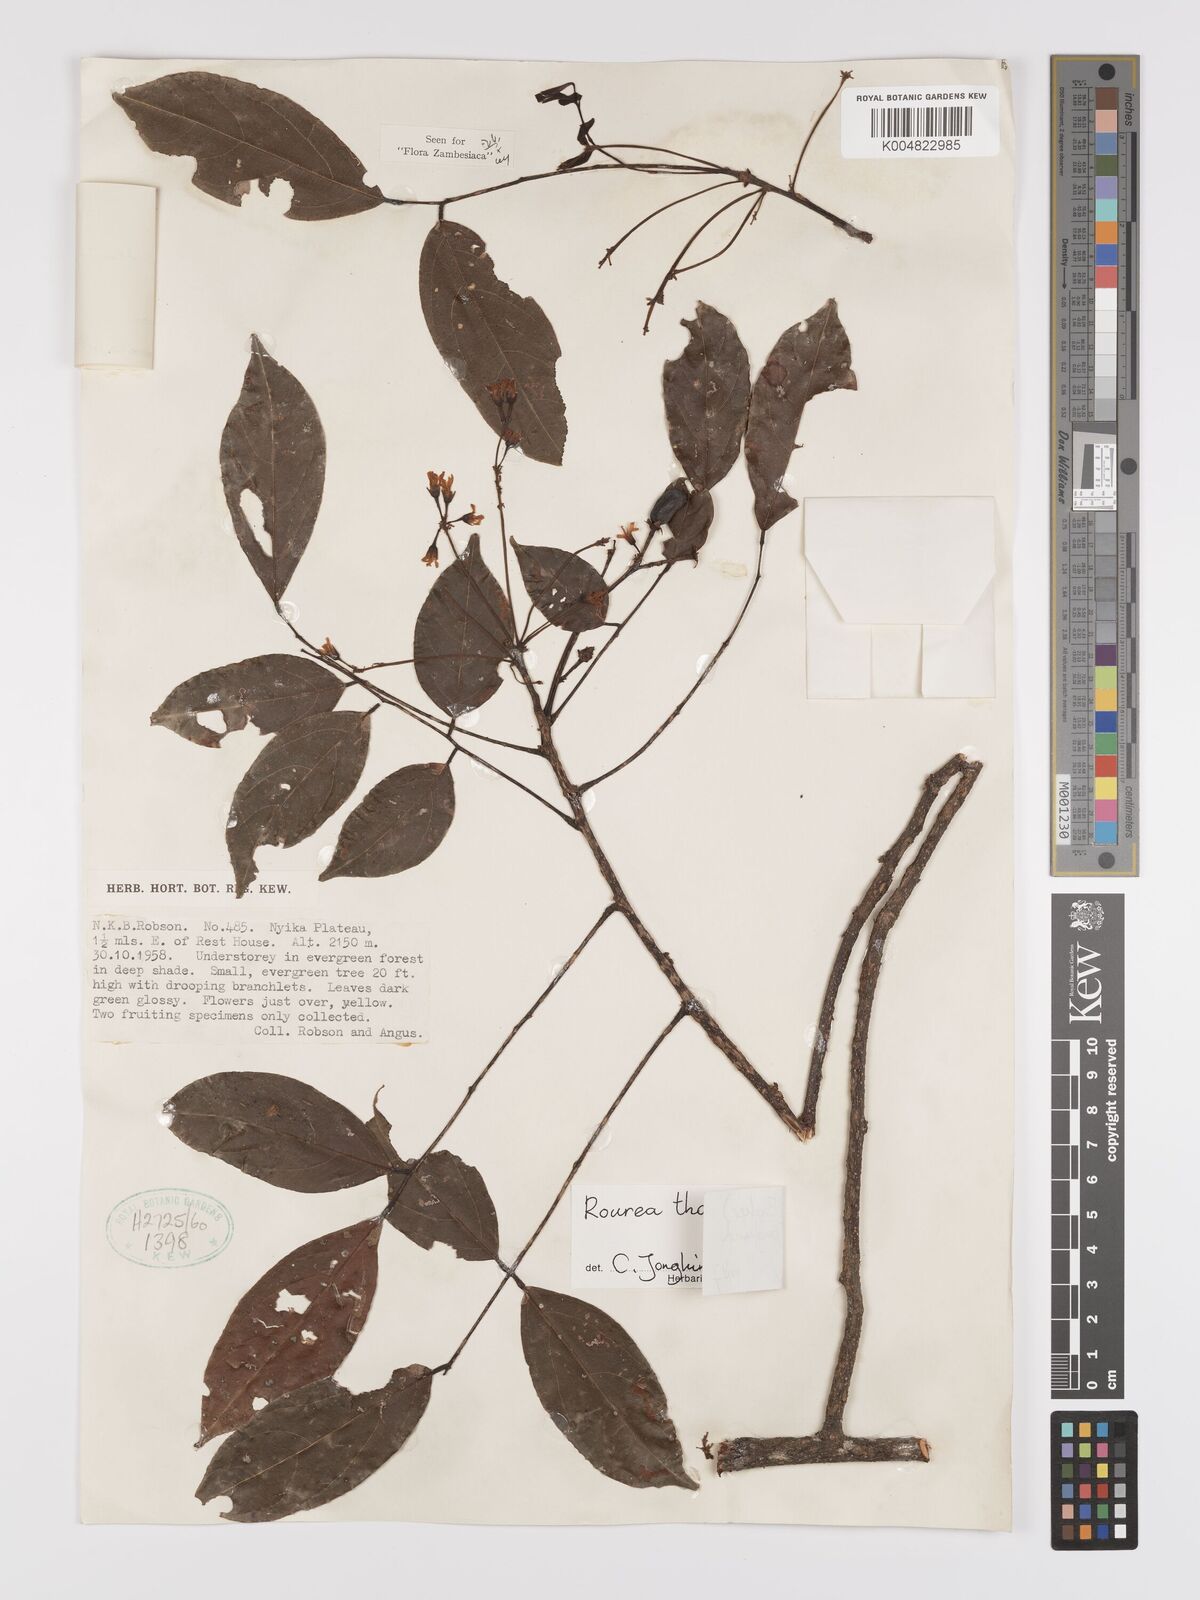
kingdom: Plantae
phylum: Tracheophyta
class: Magnoliopsida
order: Oxalidales
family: Connaraceae
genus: Rourea
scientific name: Rourea pinnata
